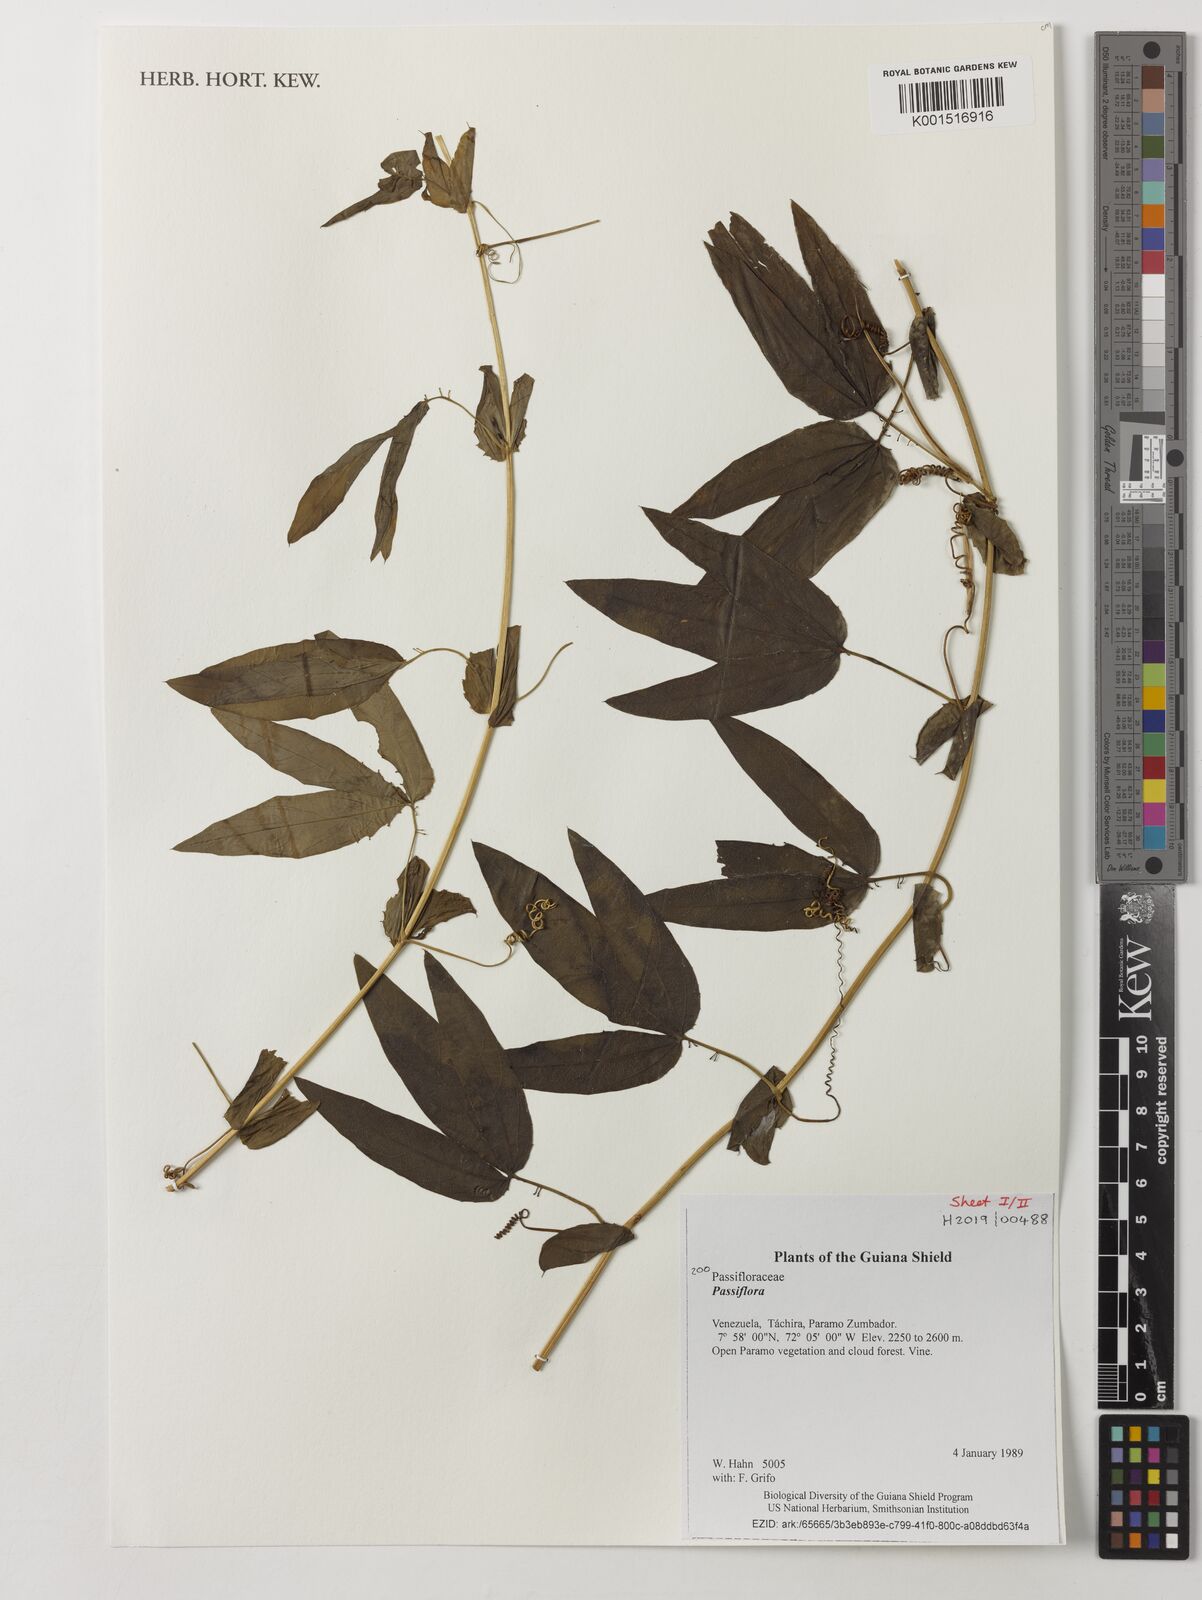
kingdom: Plantae
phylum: Tracheophyta
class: Magnoliopsida
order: Malpighiales
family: Passifloraceae
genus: Passiflora
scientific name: Passiflora
